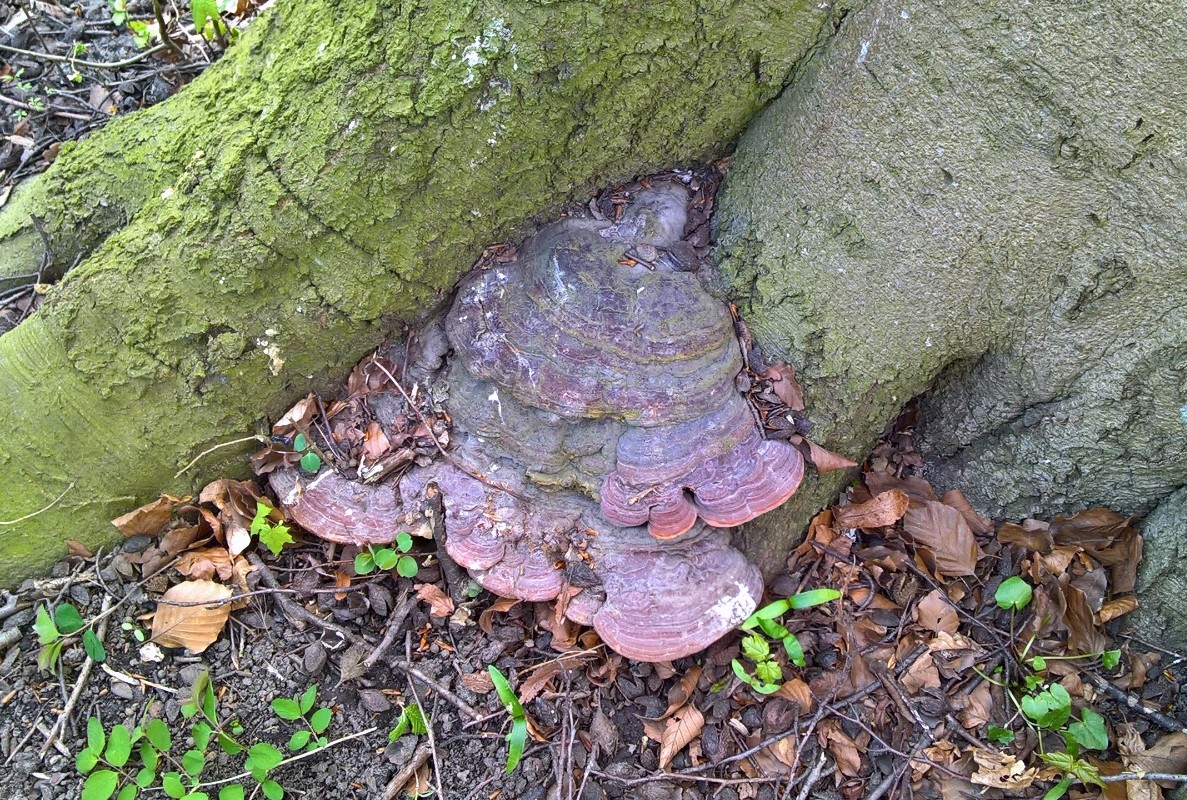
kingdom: Fungi
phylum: Basidiomycota
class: Agaricomycetes
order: Polyporales
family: Polyporaceae
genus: Ganoderma
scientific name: Ganoderma pfeifferi
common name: kobberrød lakporesvamp
